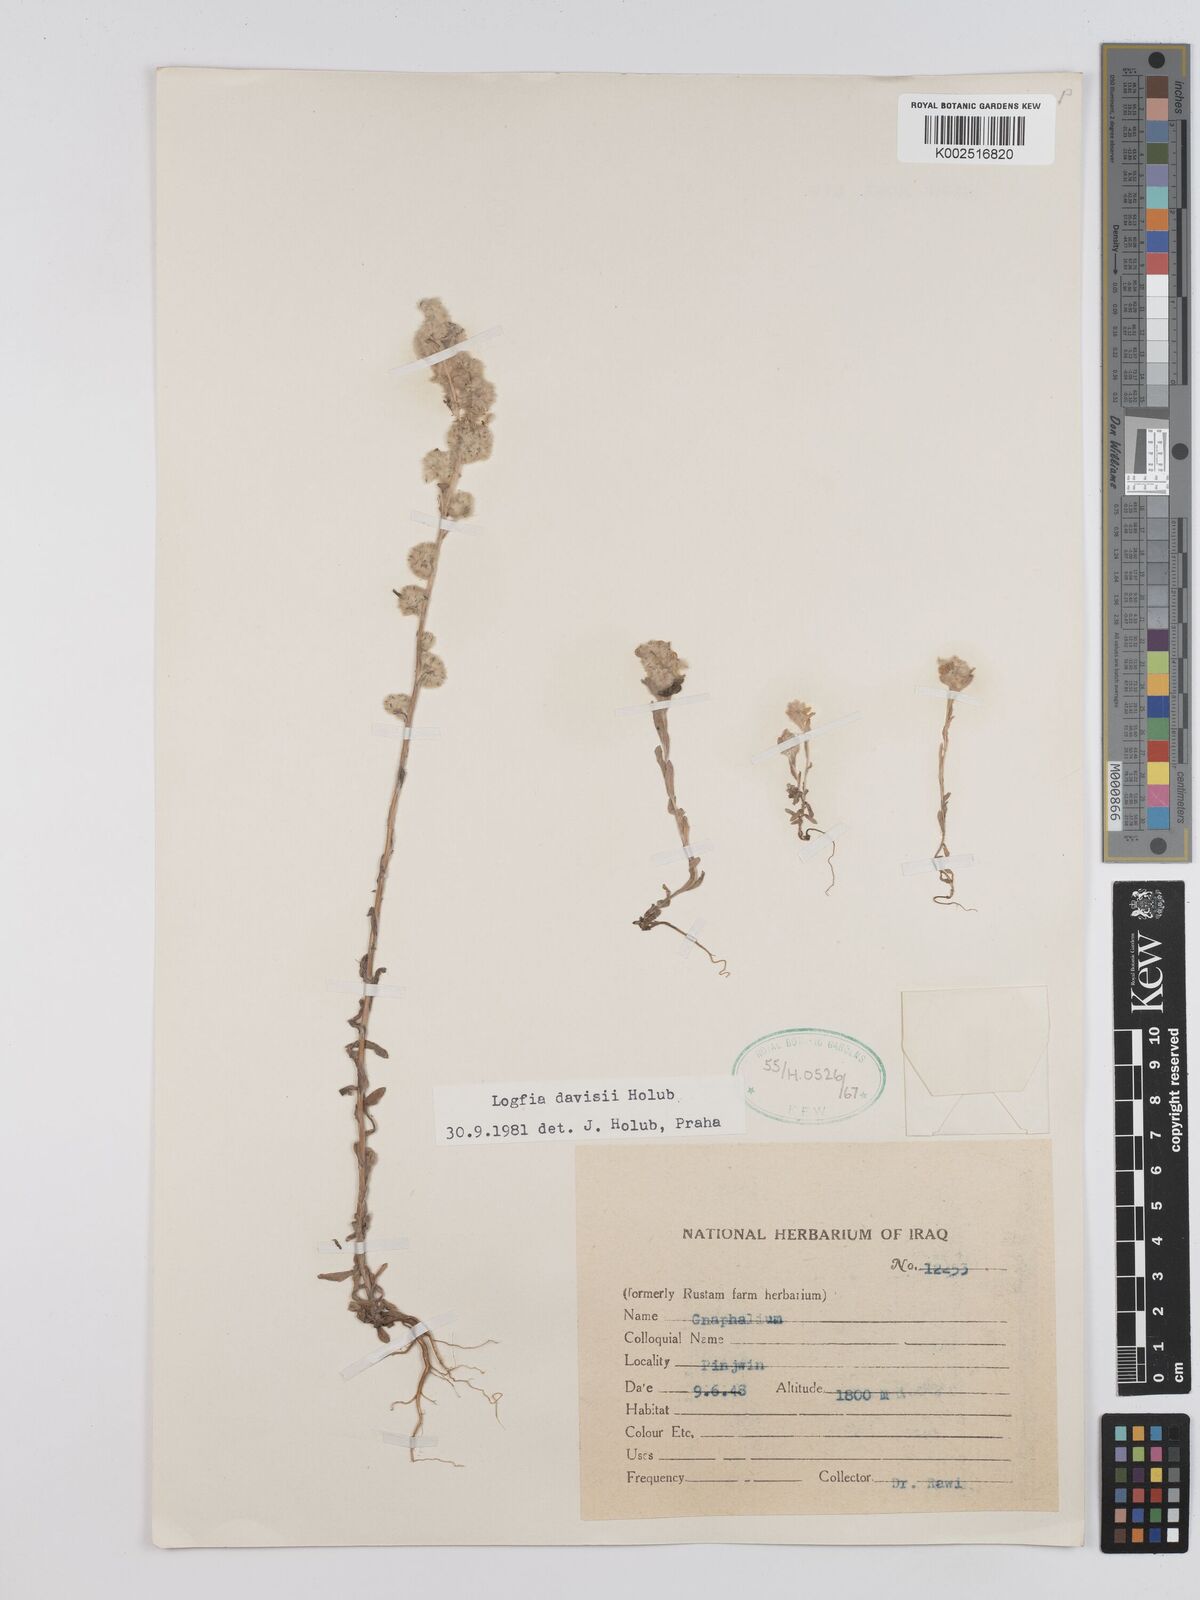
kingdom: Plantae
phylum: Tracheophyta
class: Magnoliopsida
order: Asterales
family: Asteraceae
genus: Filago
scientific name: Filago arvensis
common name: Field cudweed
